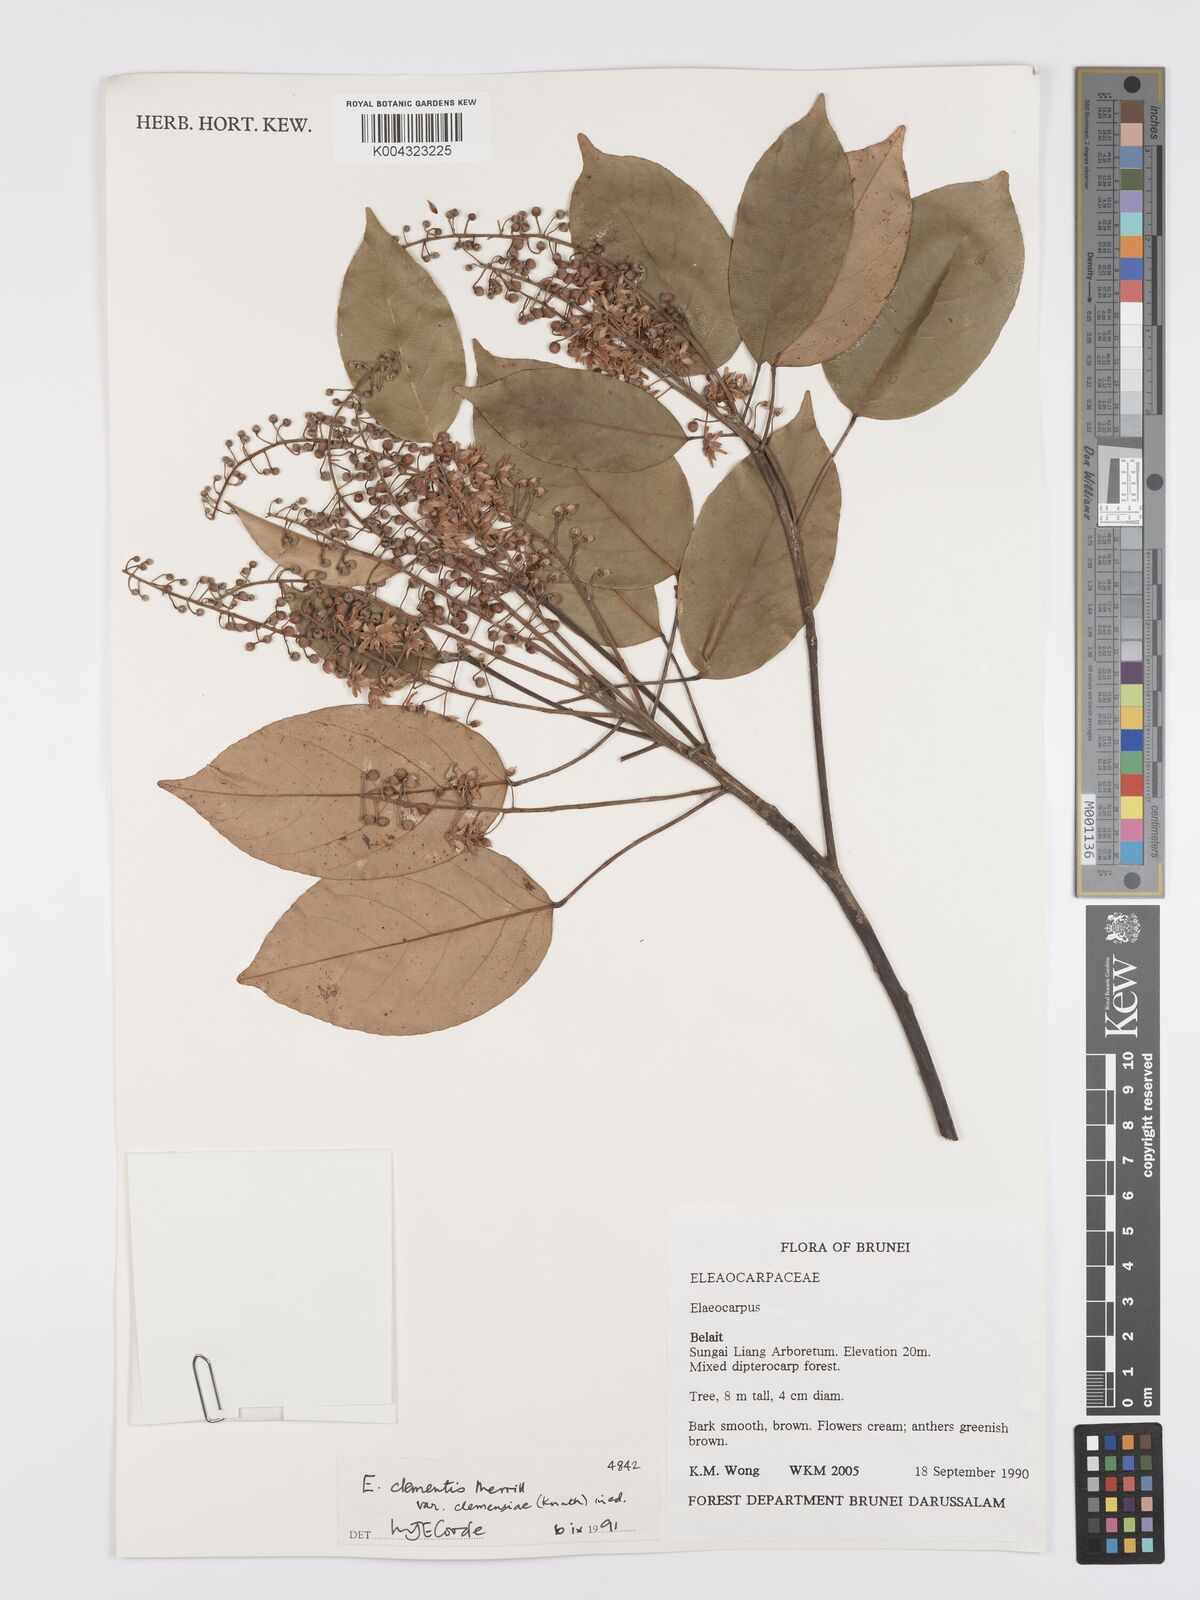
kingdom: Plantae
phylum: Tracheophyta
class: Magnoliopsida
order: Oxalidales
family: Elaeocarpaceae
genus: Elaeocarpus
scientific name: Elaeocarpus clementis
